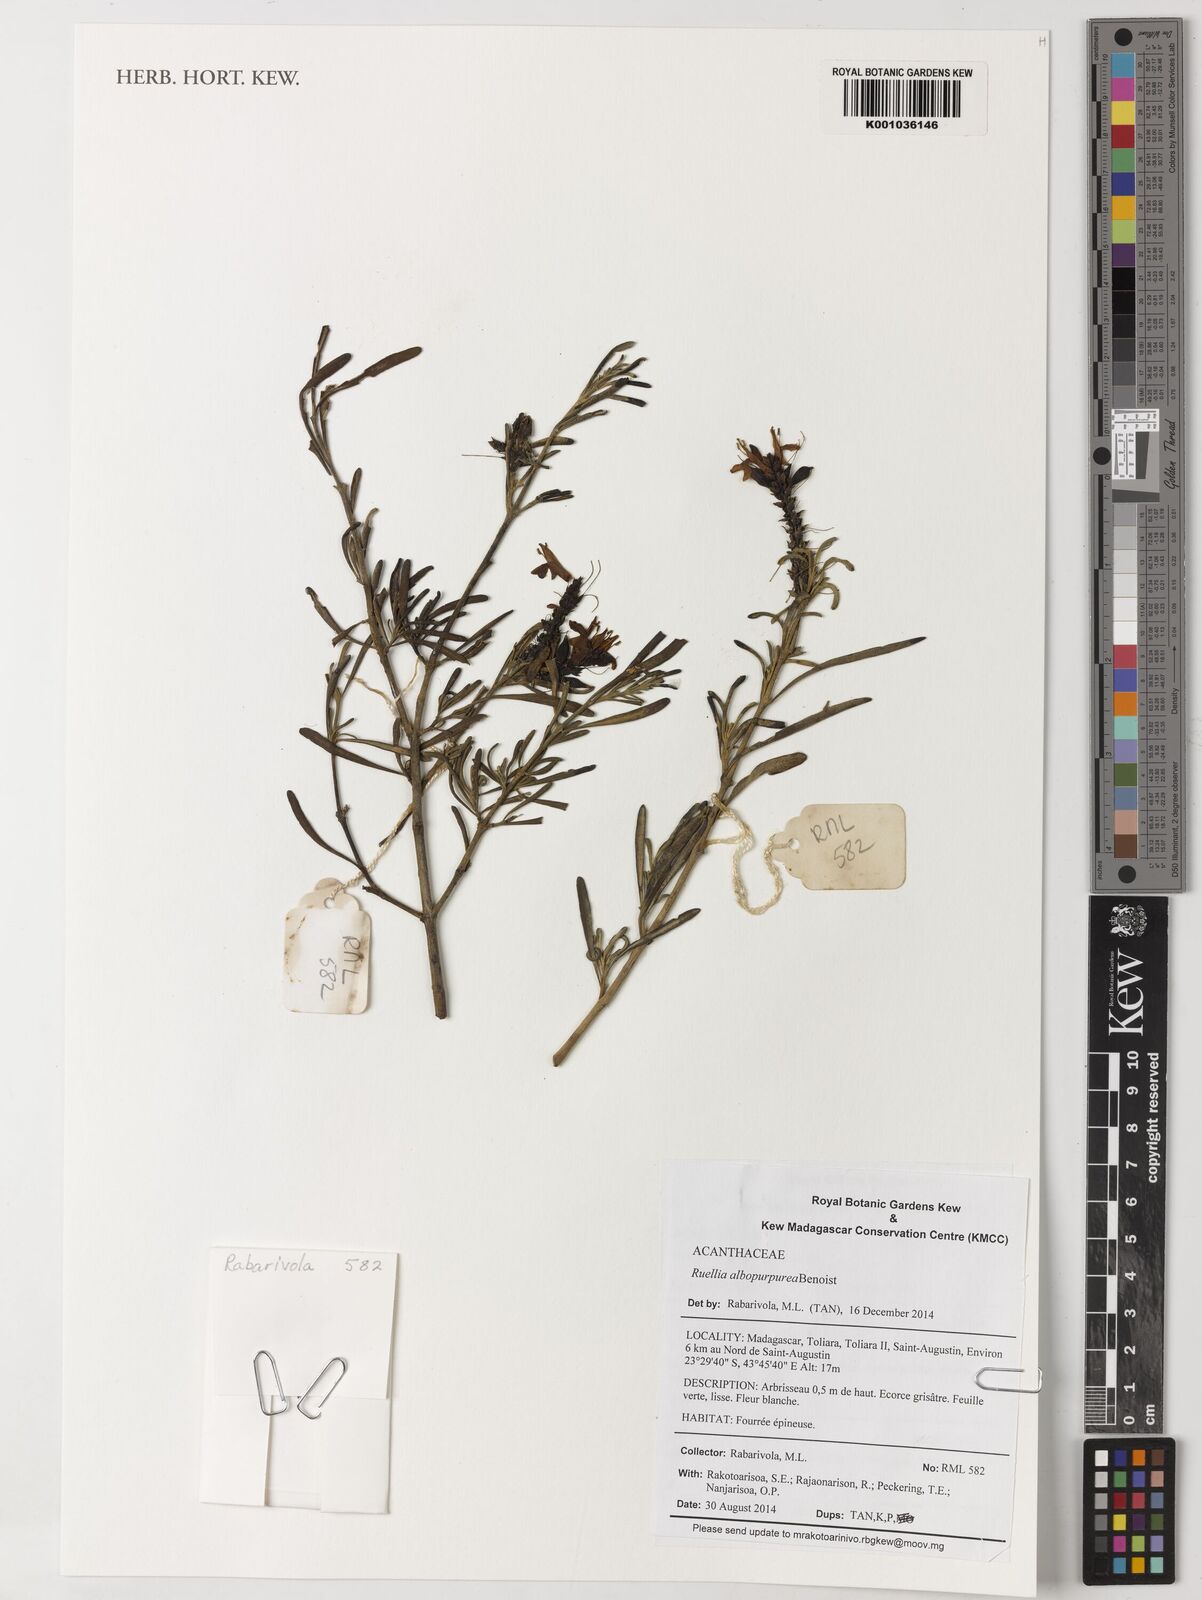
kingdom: Plantae
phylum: Tracheophyta
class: Magnoliopsida
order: Lamiales
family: Acanthaceae
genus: Justicia
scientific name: Justicia
